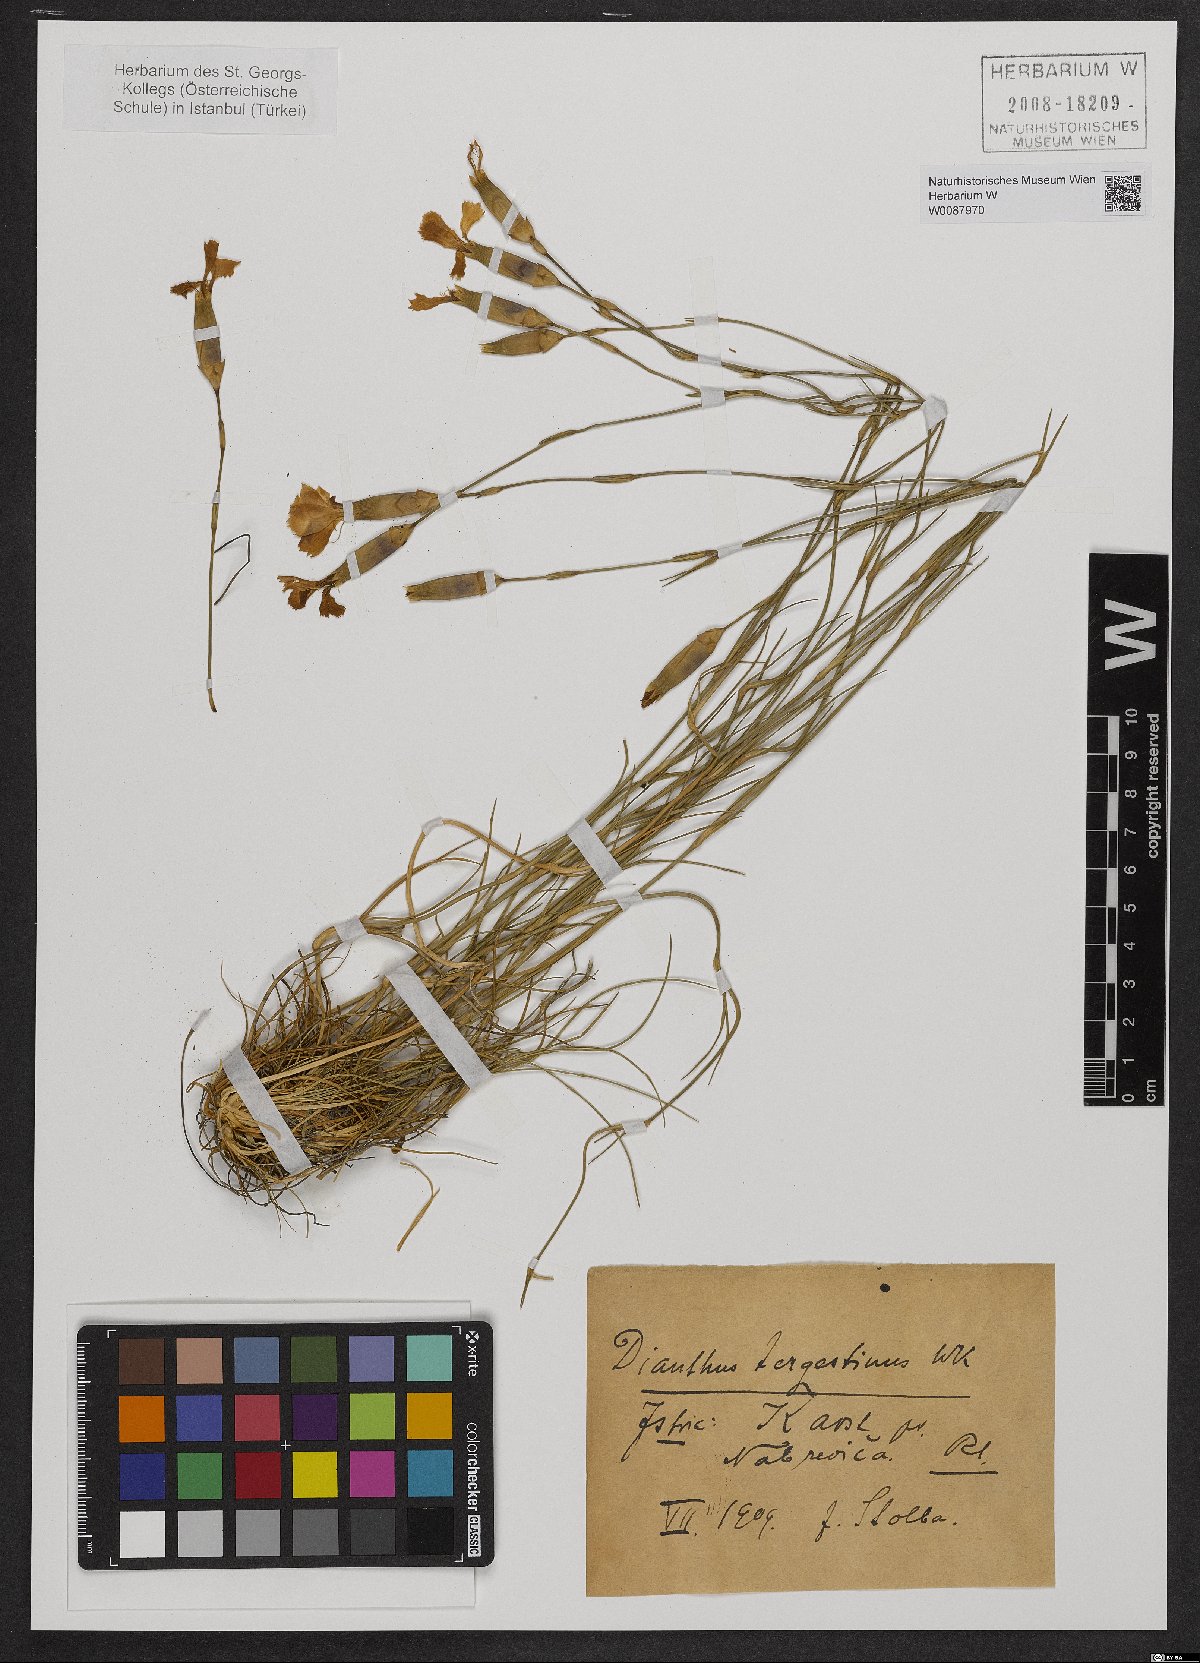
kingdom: Plantae
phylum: Tracheophyta
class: Magnoliopsida
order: Caryophyllales
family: Caryophyllaceae
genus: Dianthus
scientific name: Dianthus sylvestris
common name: Wood pink
